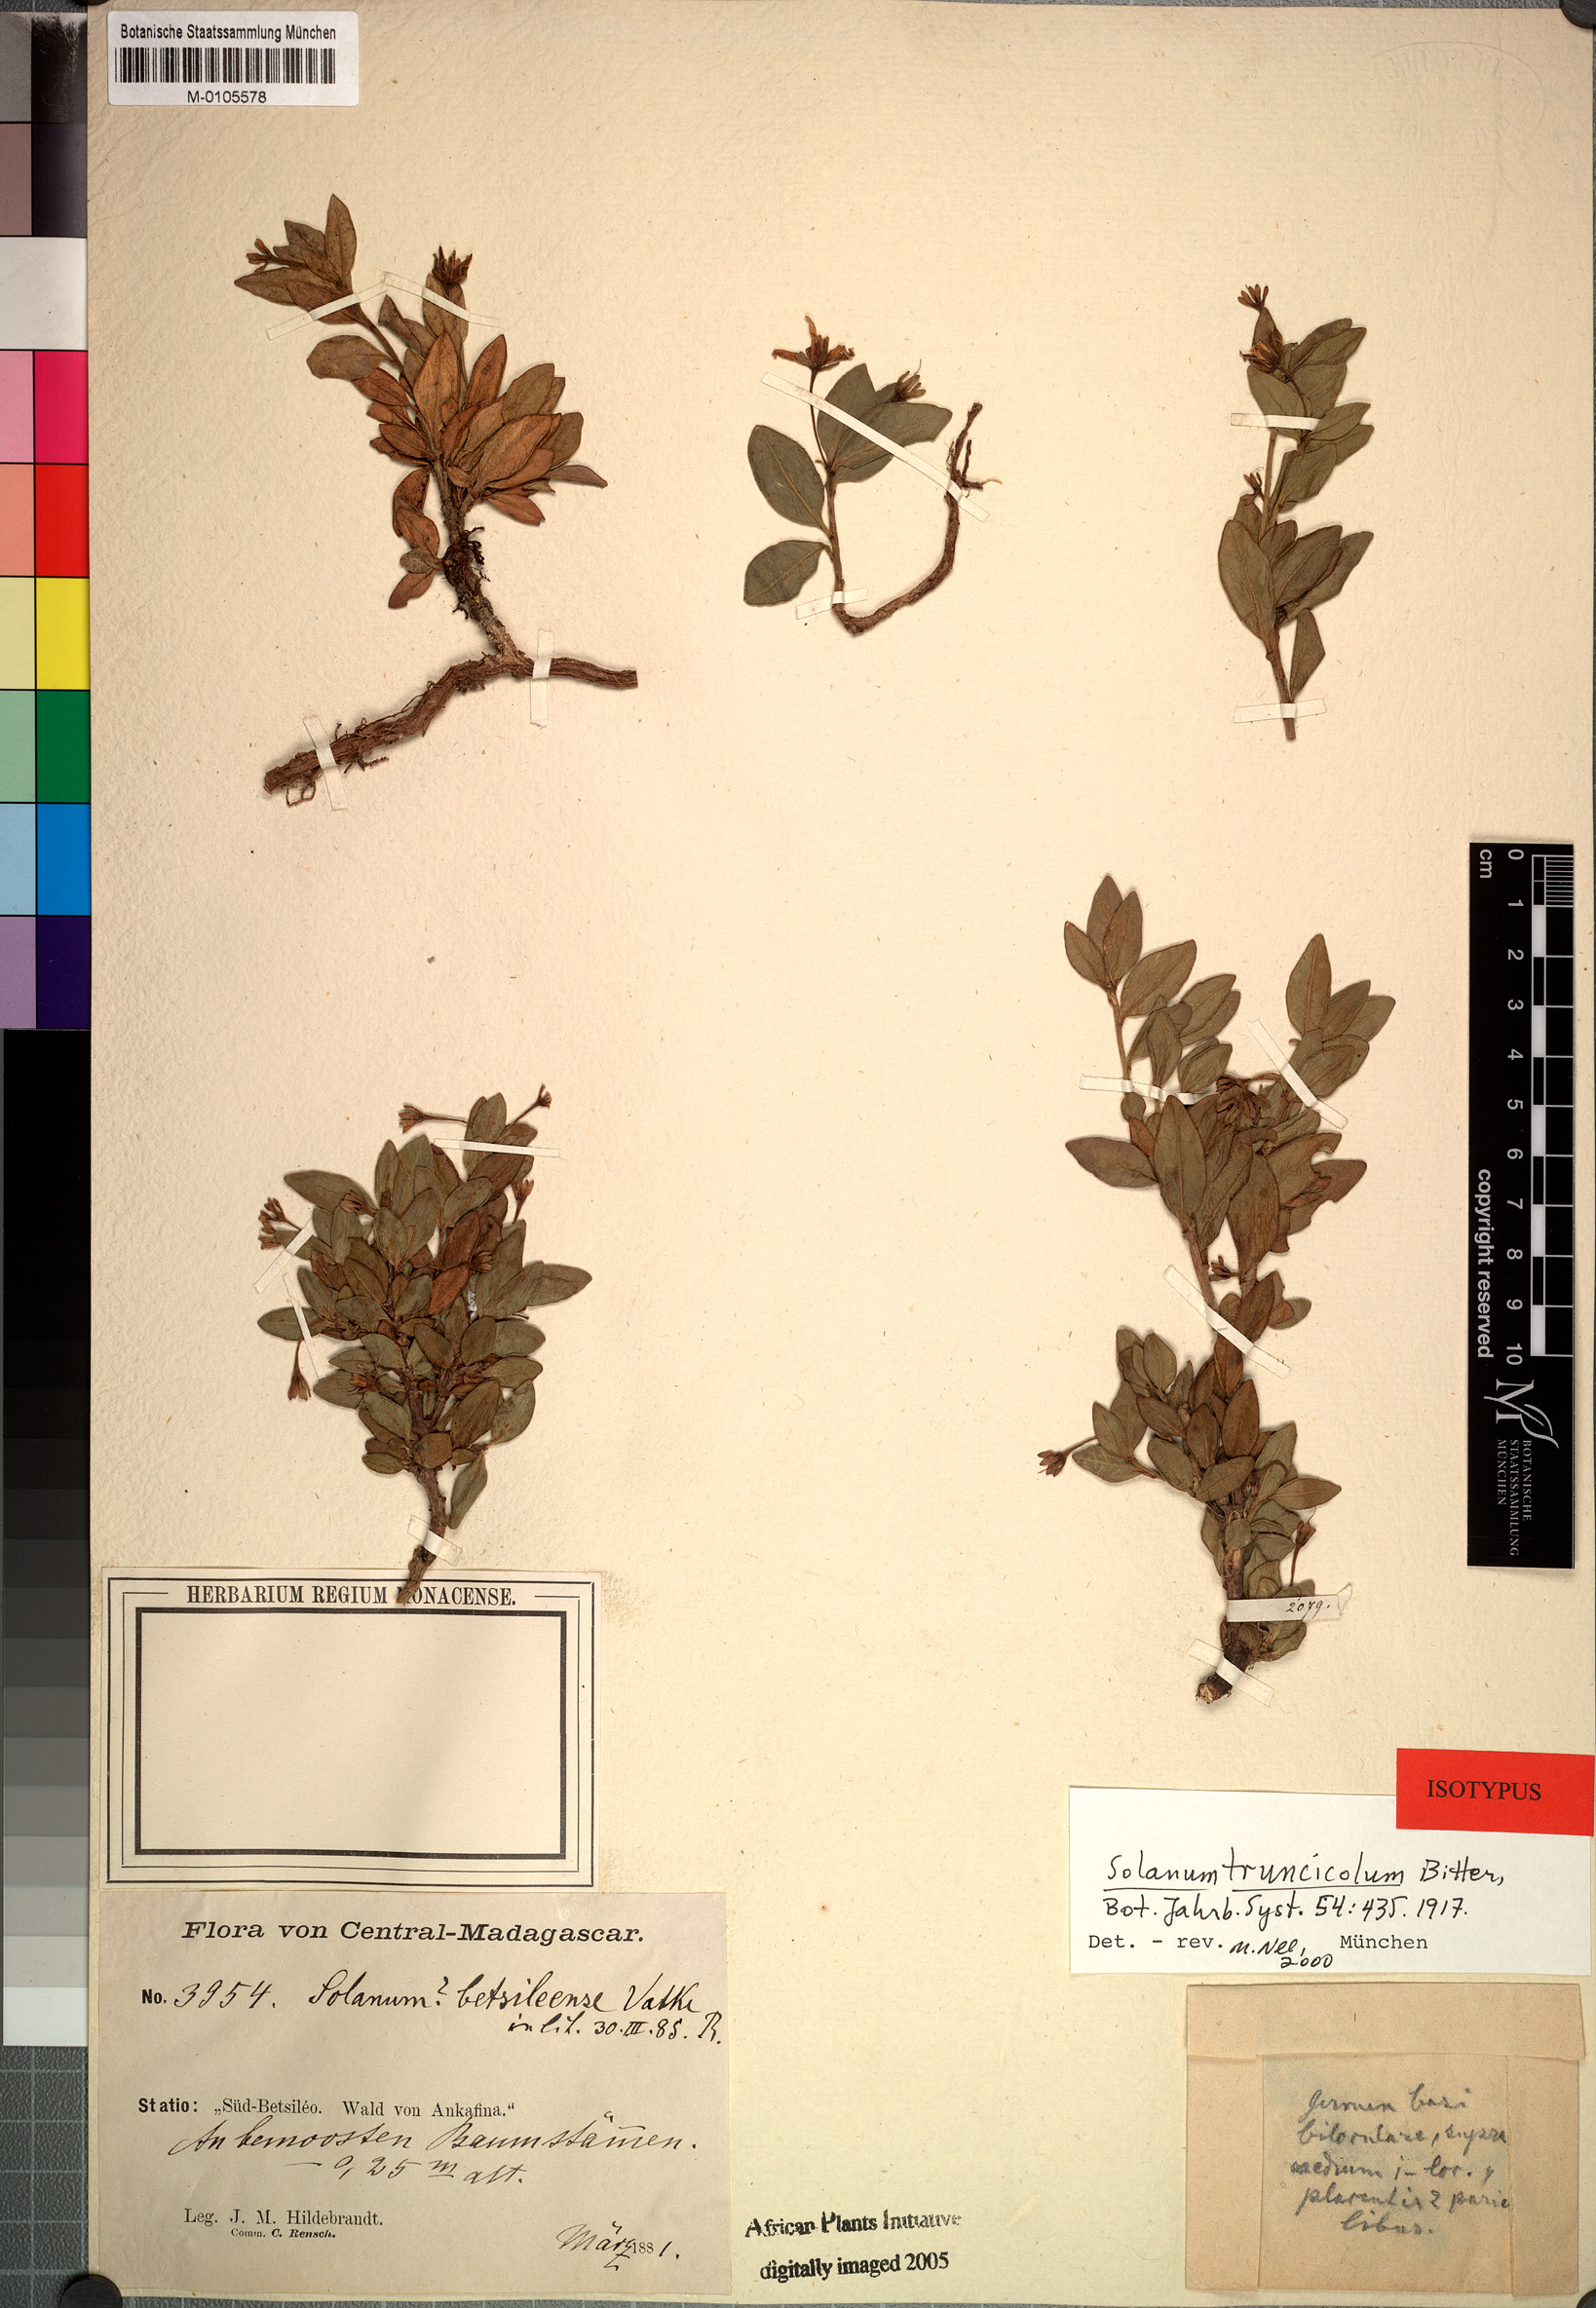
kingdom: Plantae
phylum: Tracheophyta
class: Magnoliopsida
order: Solanales
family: Solanaceae
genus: Solanum
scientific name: Solanum humblotii
